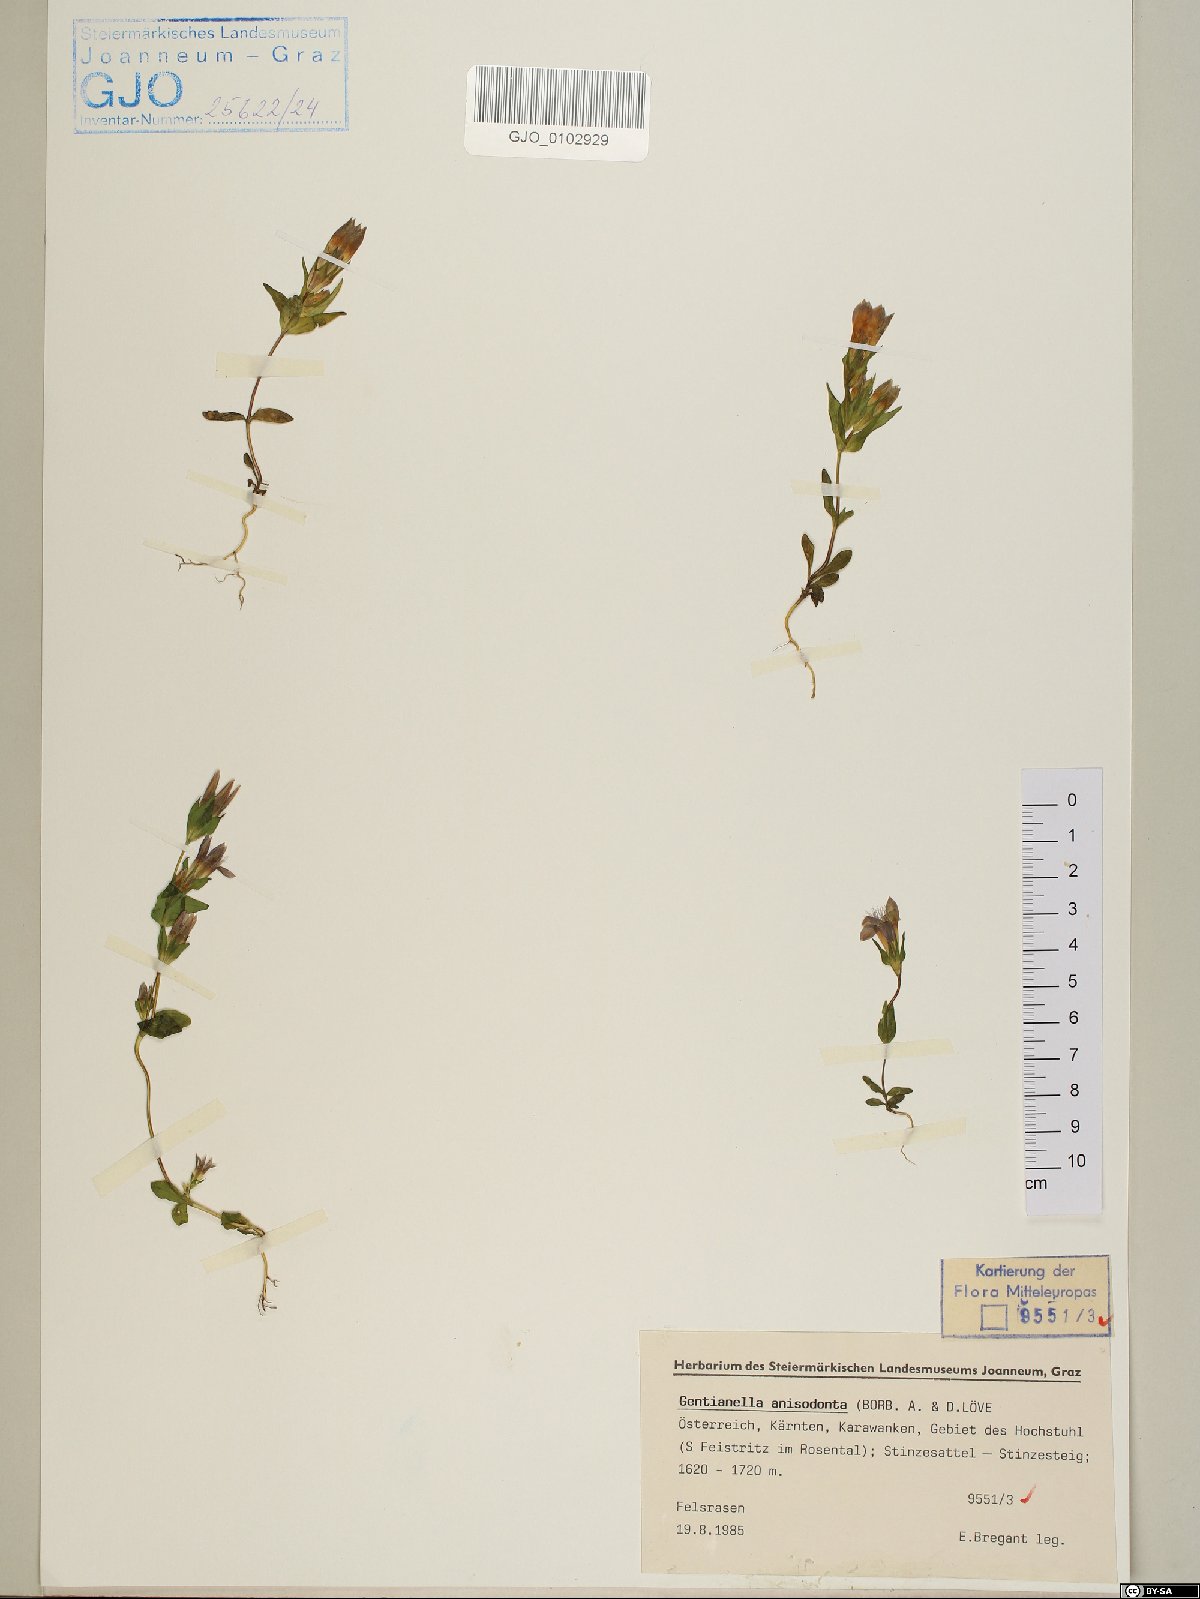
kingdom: Plantae
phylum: Tracheophyta
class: Magnoliopsida
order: Gentianales
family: Gentianaceae
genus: Gentianella
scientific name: Gentianella anisodonta
